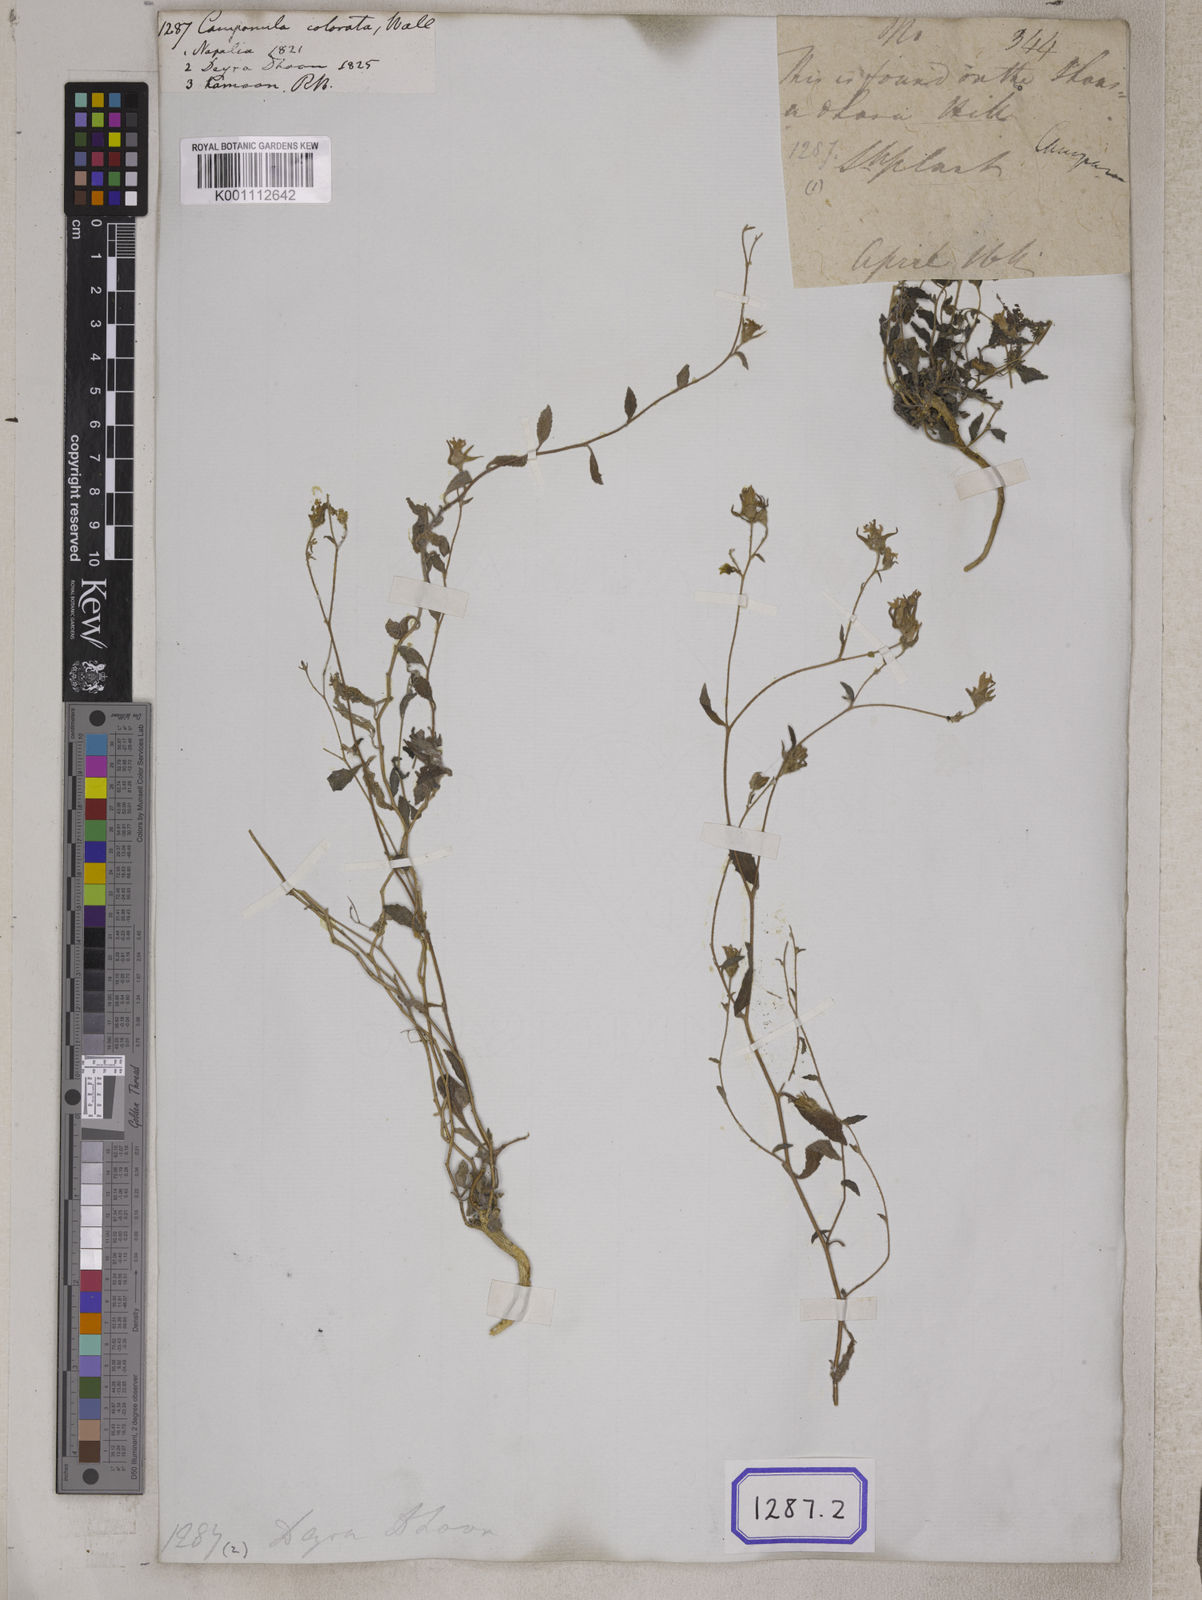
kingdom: Plantae
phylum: Tracheophyta
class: Magnoliopsida
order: Asterales
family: Campanulaceae
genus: Campanula
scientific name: Campanula pallida
